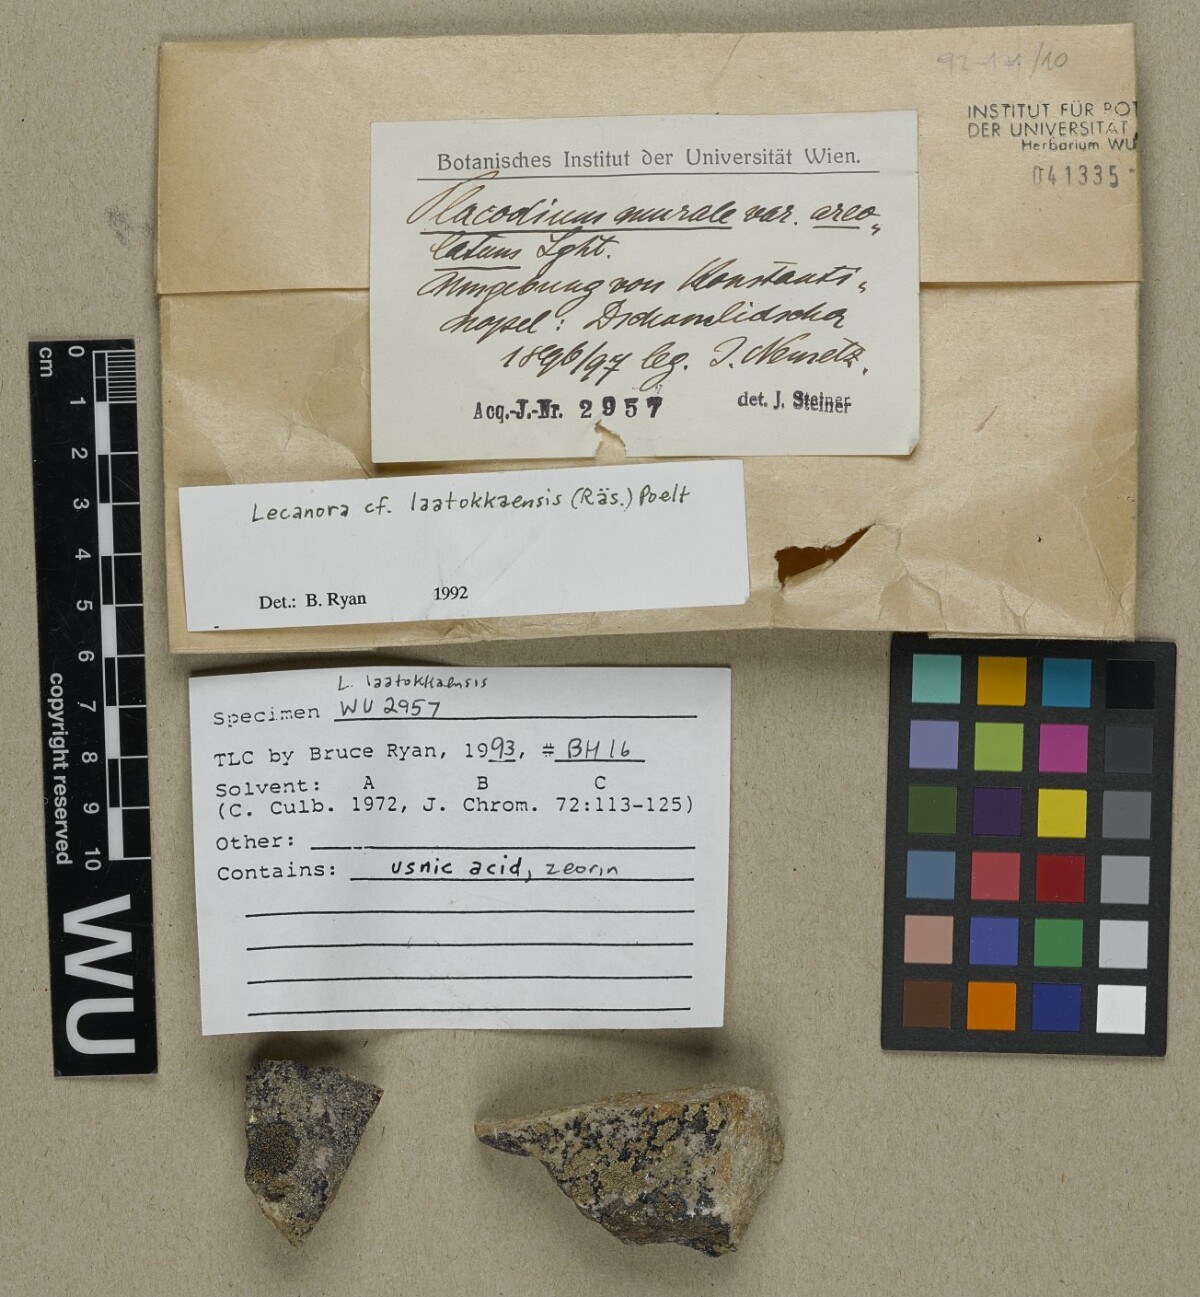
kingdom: Fungi
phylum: Ascomycota
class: Lecanoromycetes
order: Lecanorales
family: Lecanoraceae
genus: Protoparmeliopsis
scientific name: Protoparmeliopsis laatokkaensis
